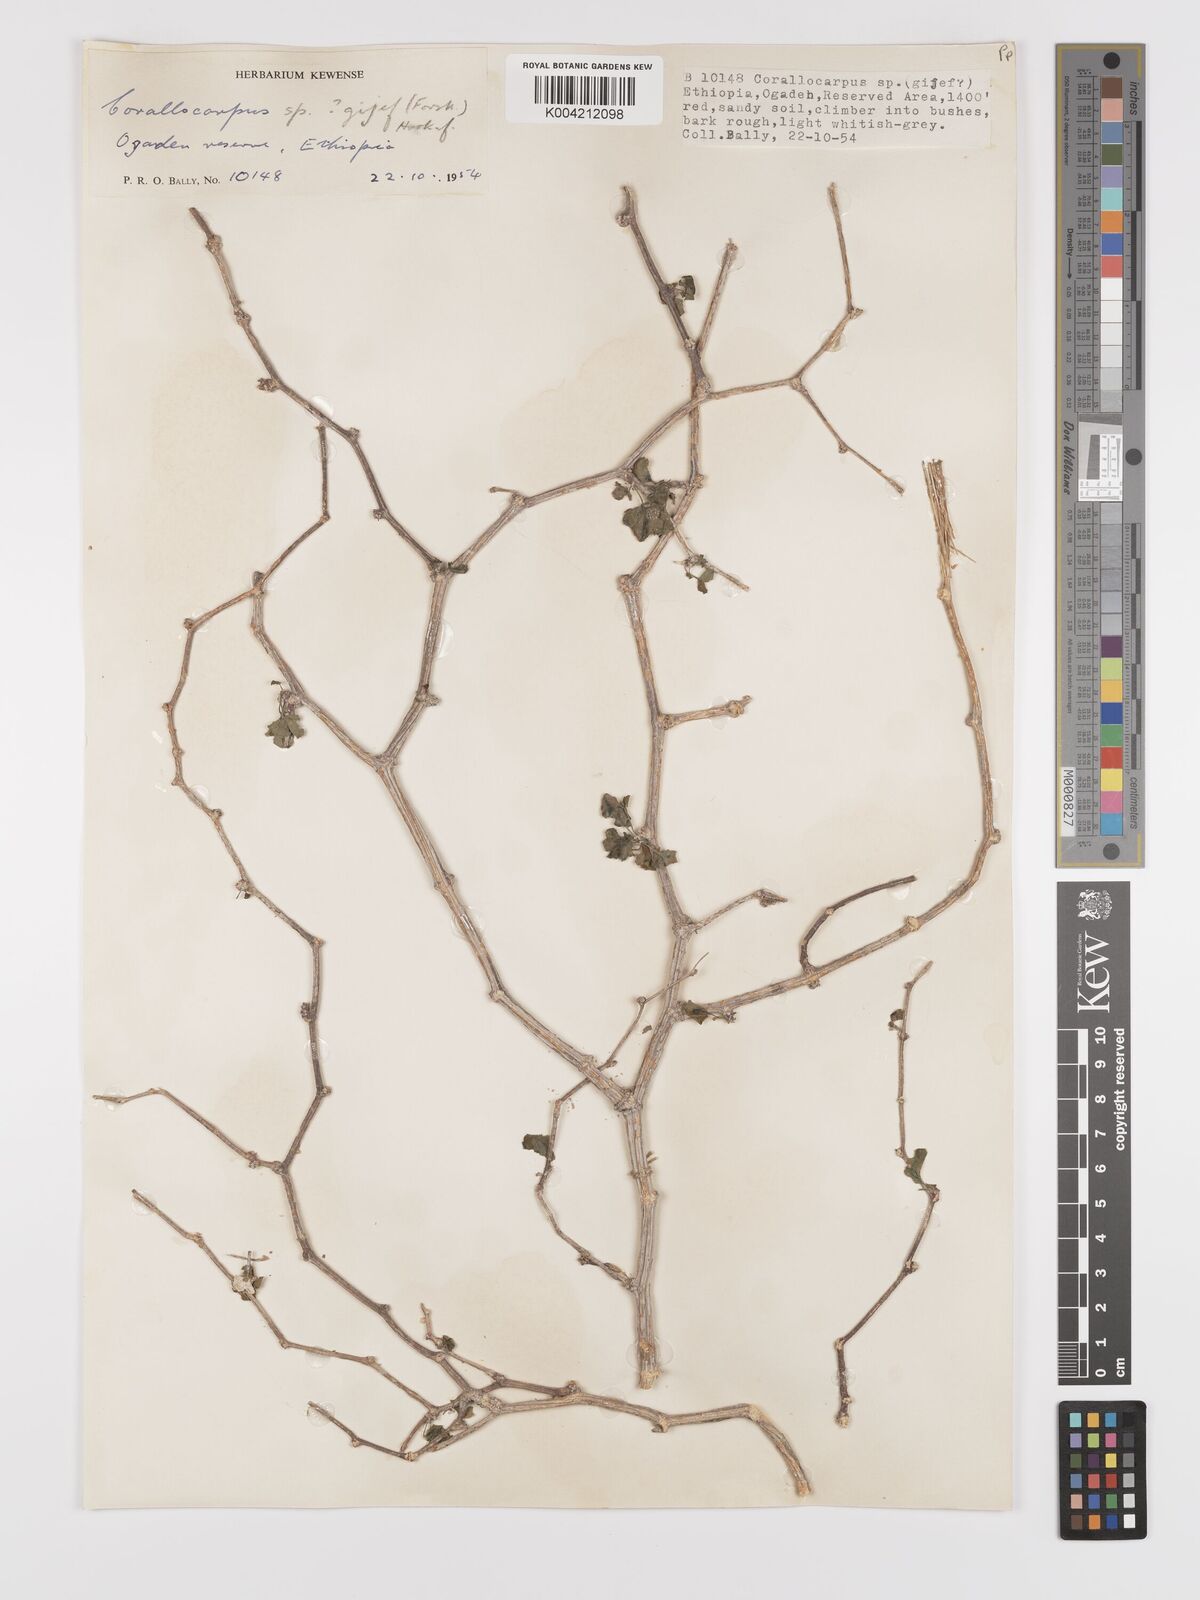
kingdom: Plantae
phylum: Tracheophyta
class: Magnoliopsida
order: Cucurbitales
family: Cucurbitaceae
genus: Kedrostis
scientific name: Kedrostis gijef
